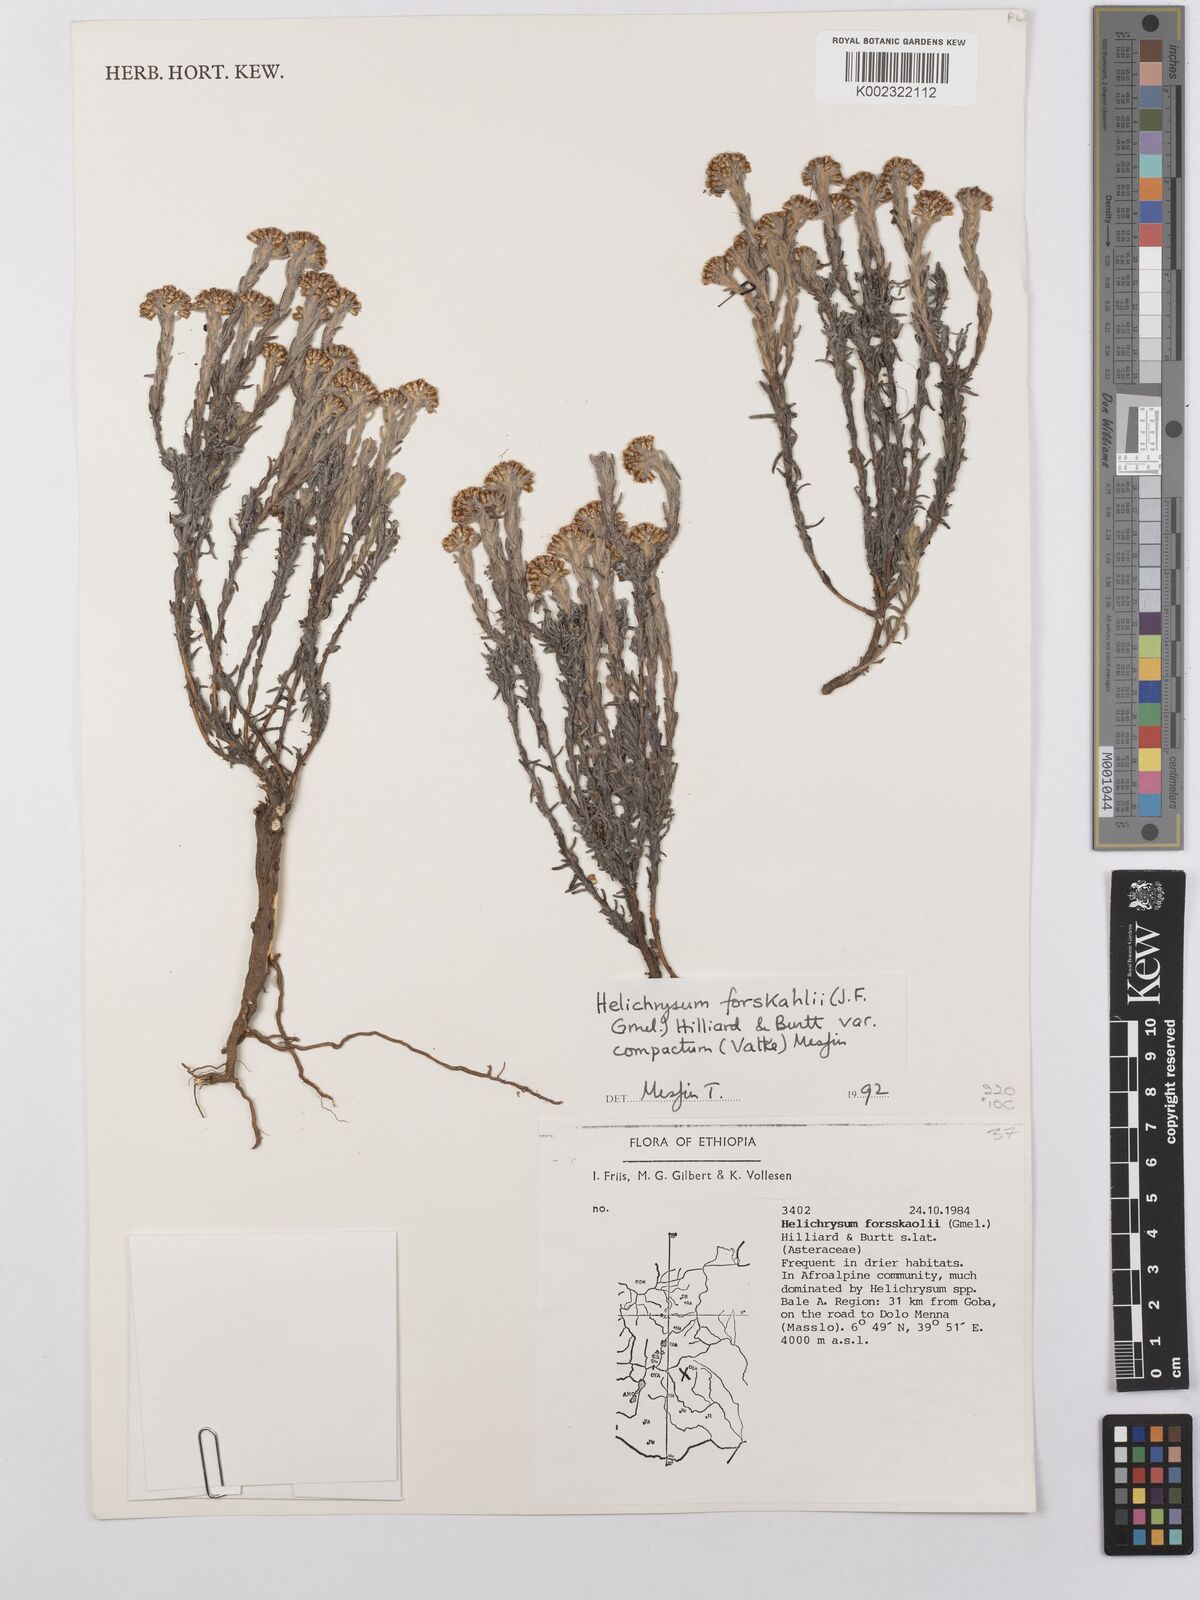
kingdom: Plantae
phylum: Tracheophyta
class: Magnoliopsida
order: Asterales
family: Asteraceae
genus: Helichrysum
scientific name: Helichrysum forskahlii
